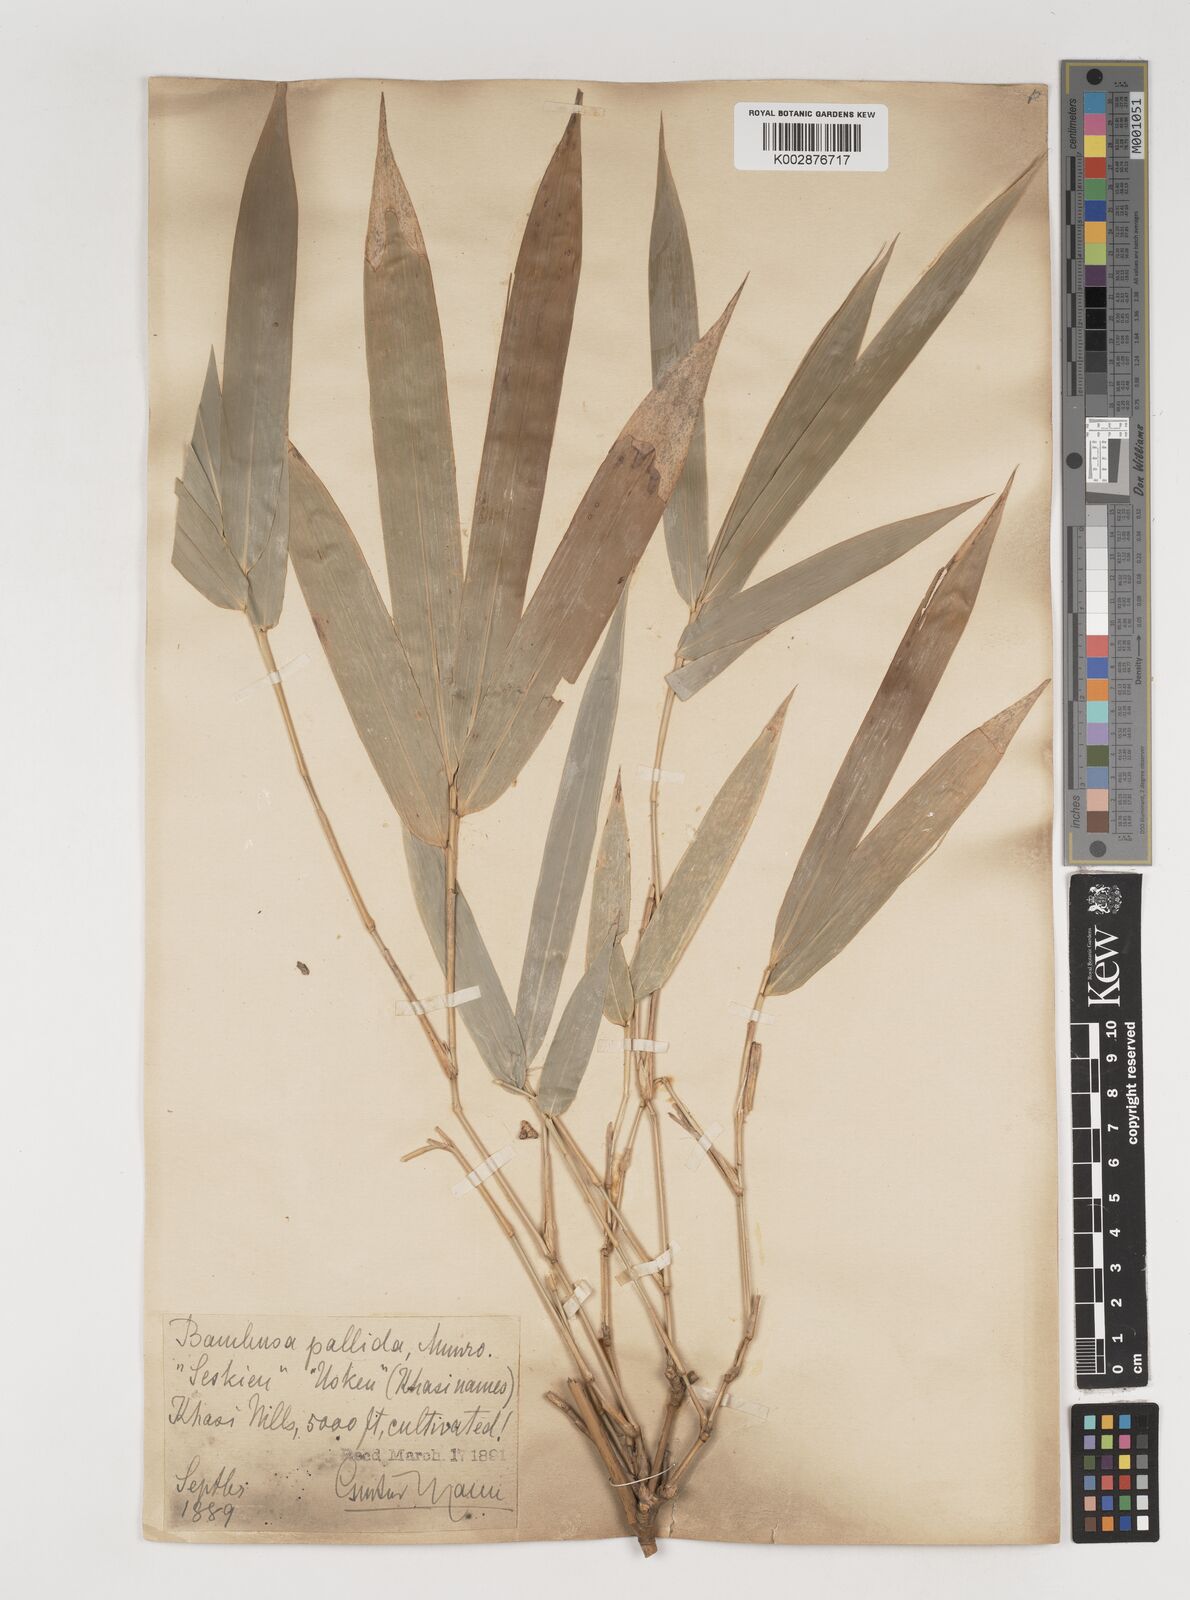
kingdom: Plantae
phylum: Tracheophyta
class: Liliopsida
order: Poales
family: Poaceae
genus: Bambusa
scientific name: Bambusa pallida
